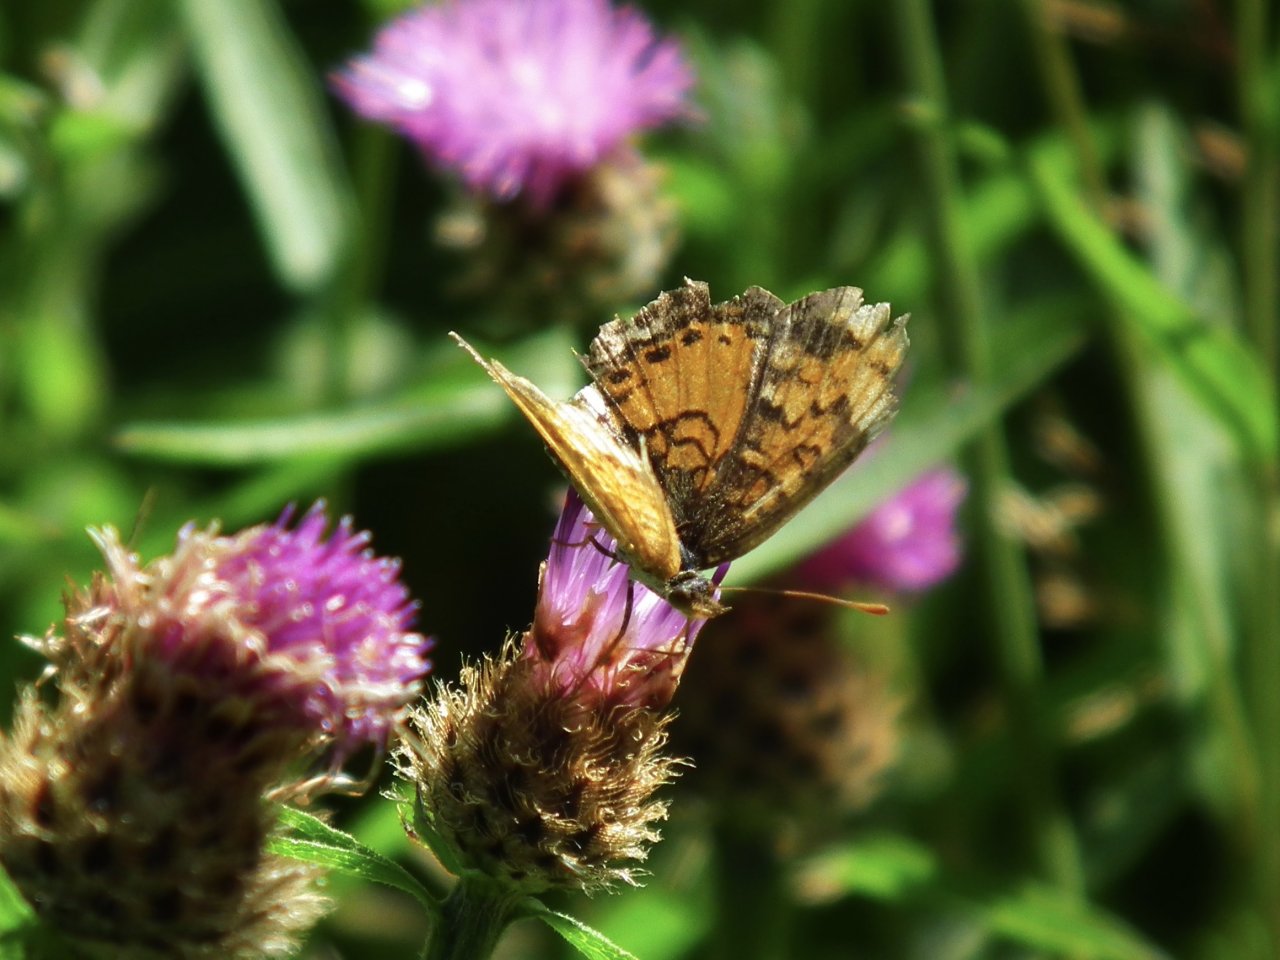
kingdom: Animalia
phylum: Arthropoda
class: Insecta
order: Lepidoptera
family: Nymphalidae
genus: Phyciodes
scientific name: Phyciodes tharos
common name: Northern Crescent
